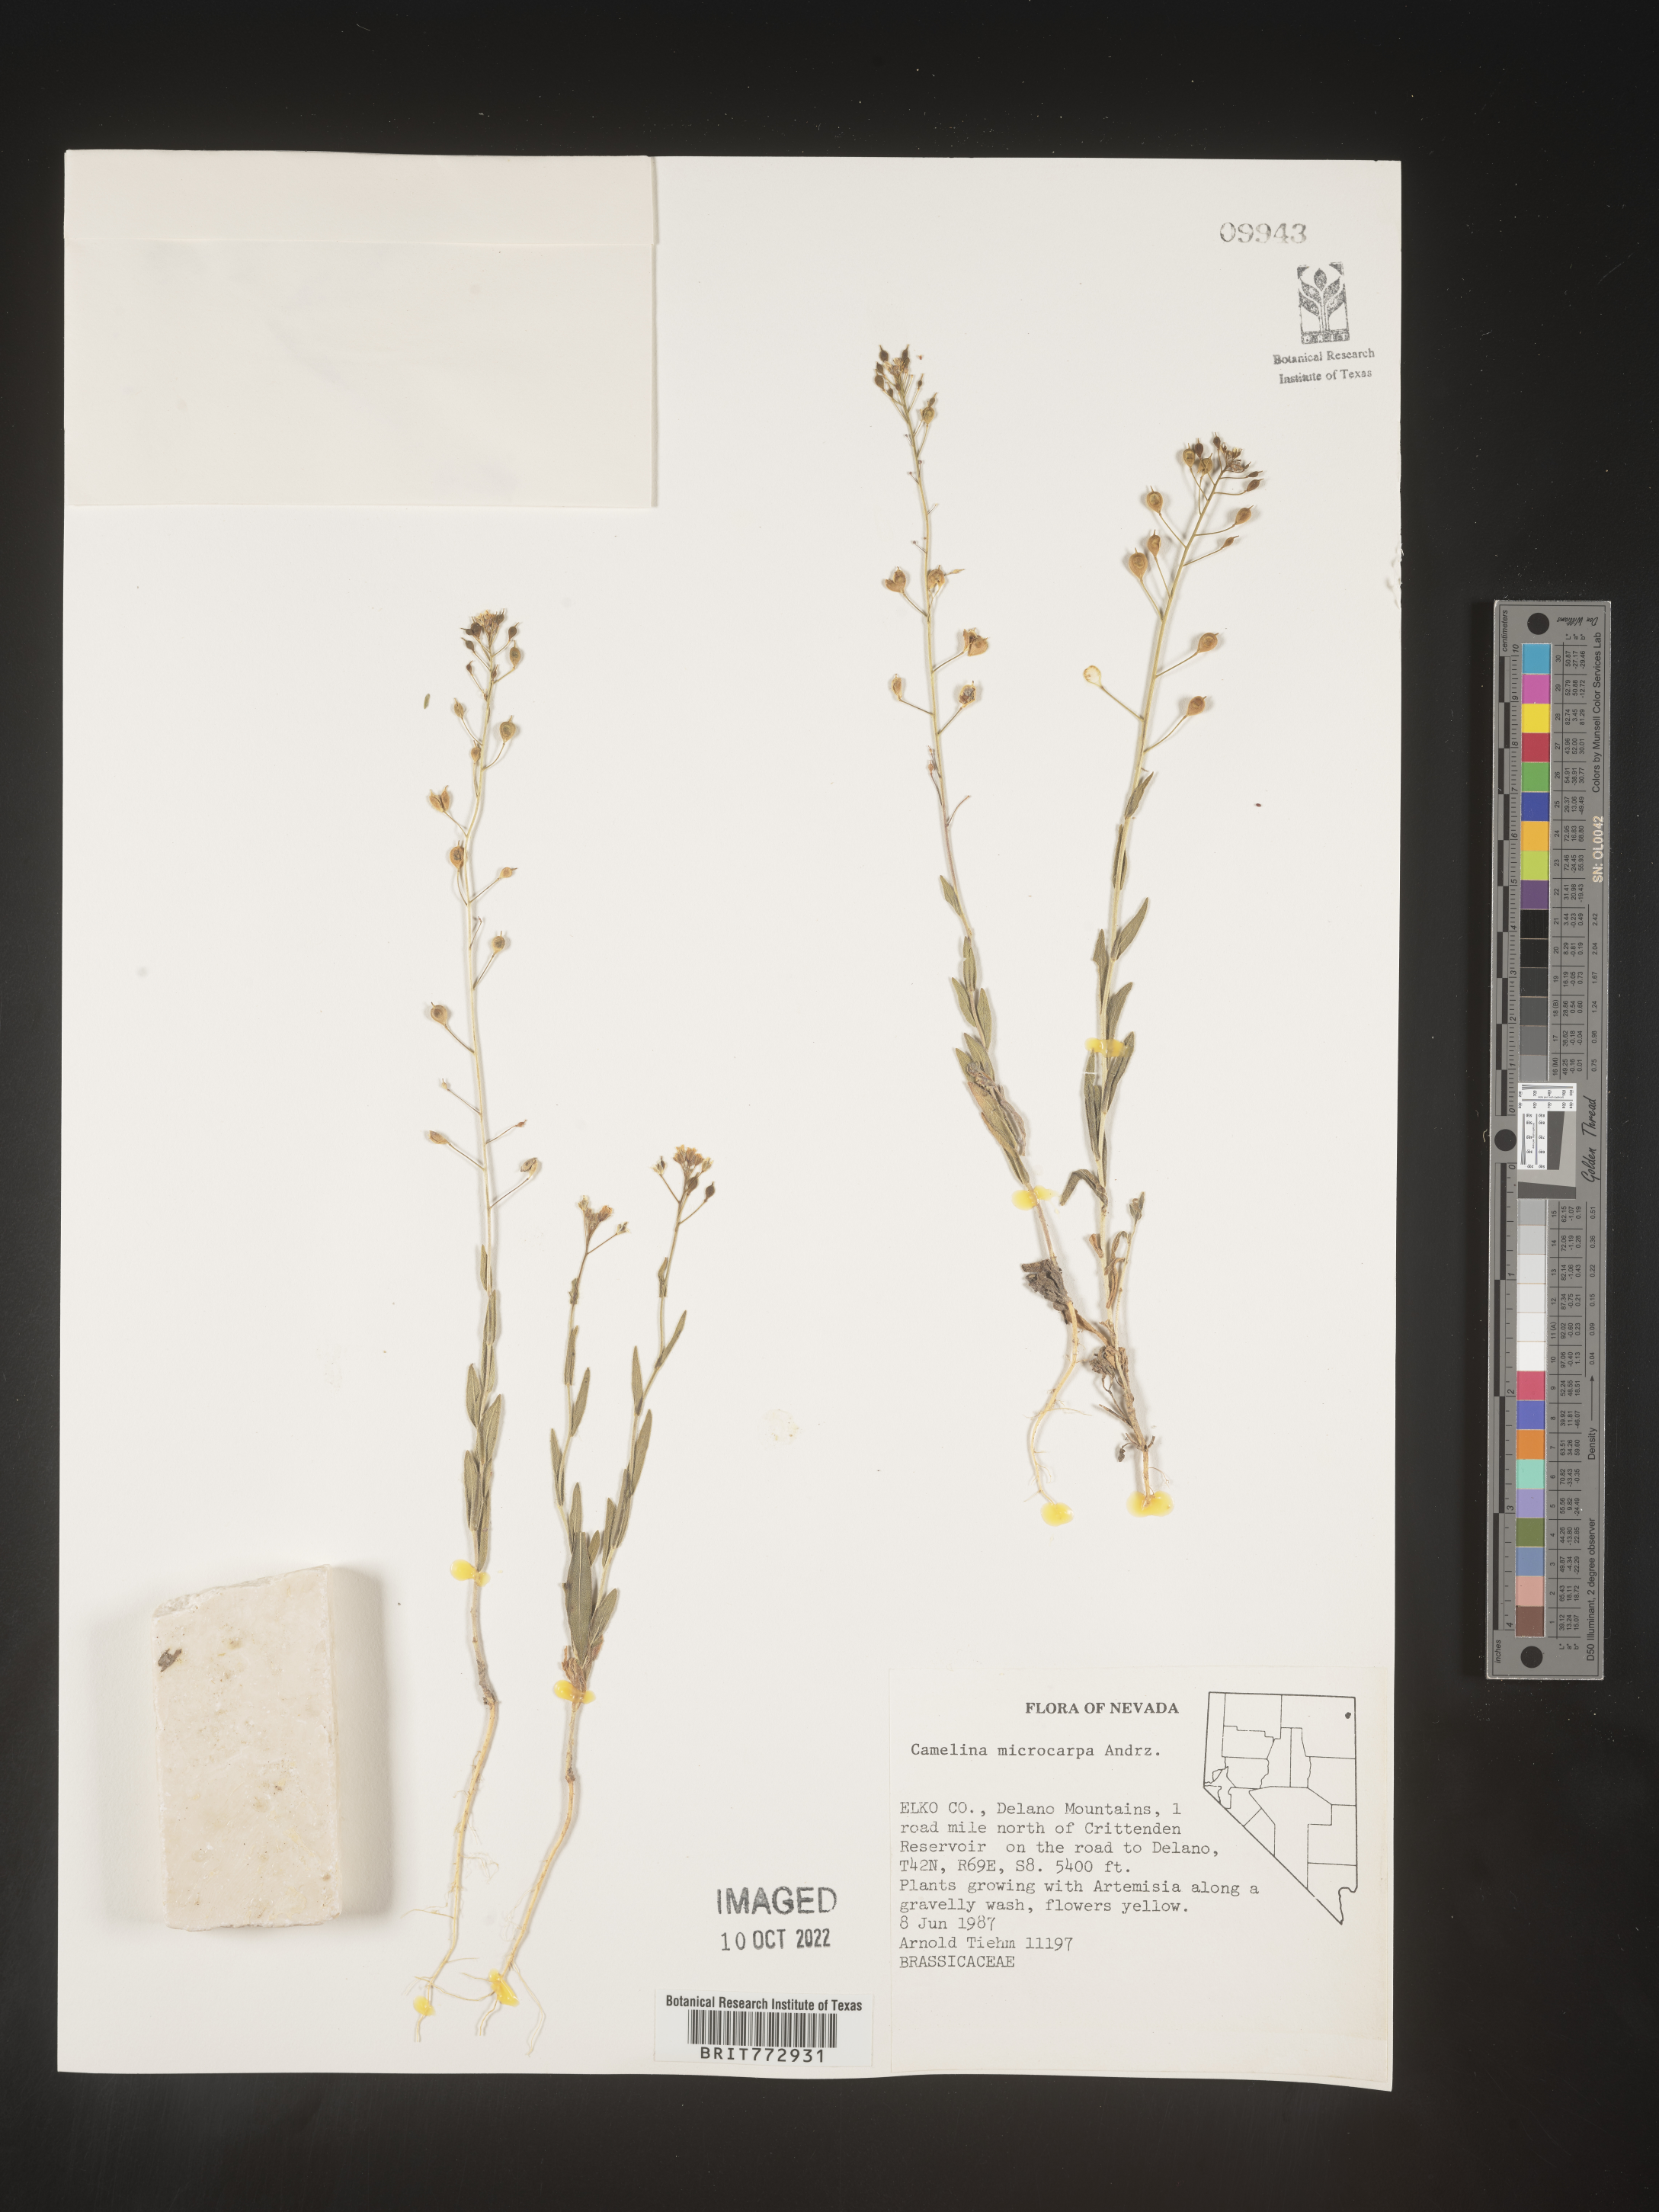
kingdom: Plantae
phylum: Tracheophyta
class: Magnoliopsida
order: Brassicales
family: Brassicaceae
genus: Camelina
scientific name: Camelina microcarpa
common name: Lesser gold-of-pleasure
